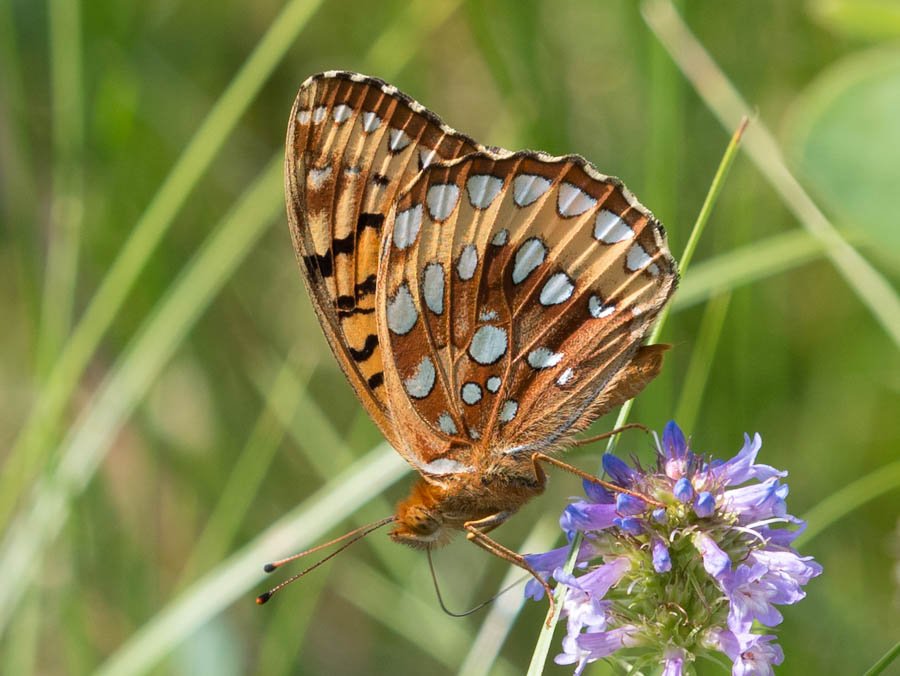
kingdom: Animalia
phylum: Arthropoda
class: Insecta
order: Lepidoptera
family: Nymphalidae
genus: Speyeria
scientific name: Speyeria cybele
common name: Great Spangled Fritillary
